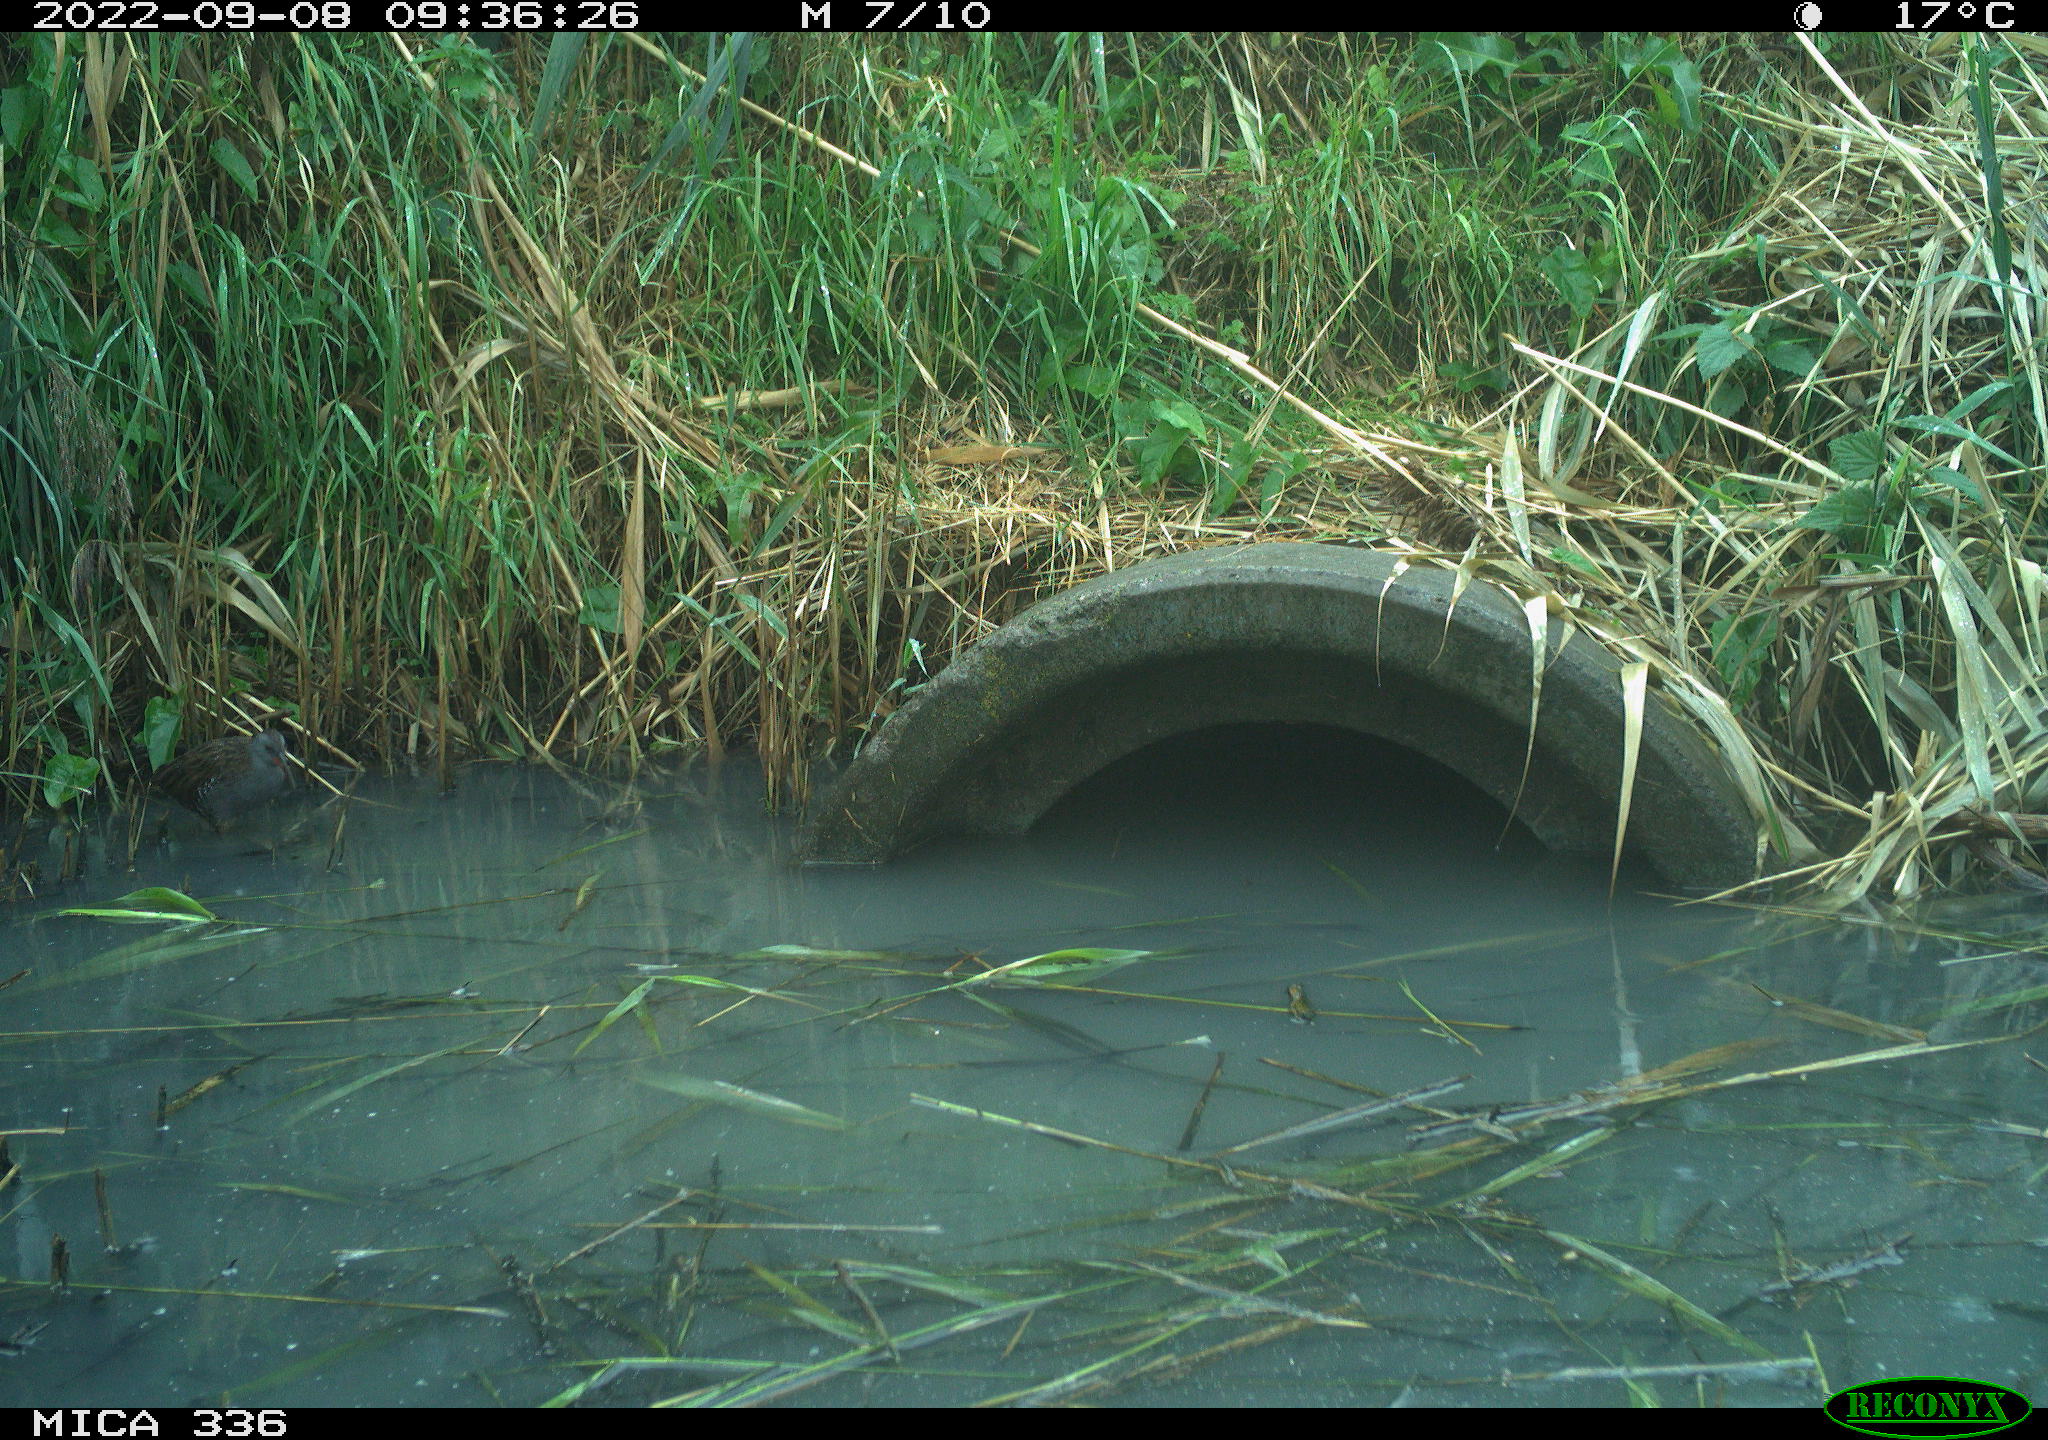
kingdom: Animalia
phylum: Chordata
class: Aves
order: Gruiformes
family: Rallidae
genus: Rallus
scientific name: Rallus aquaticus
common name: Water rail
